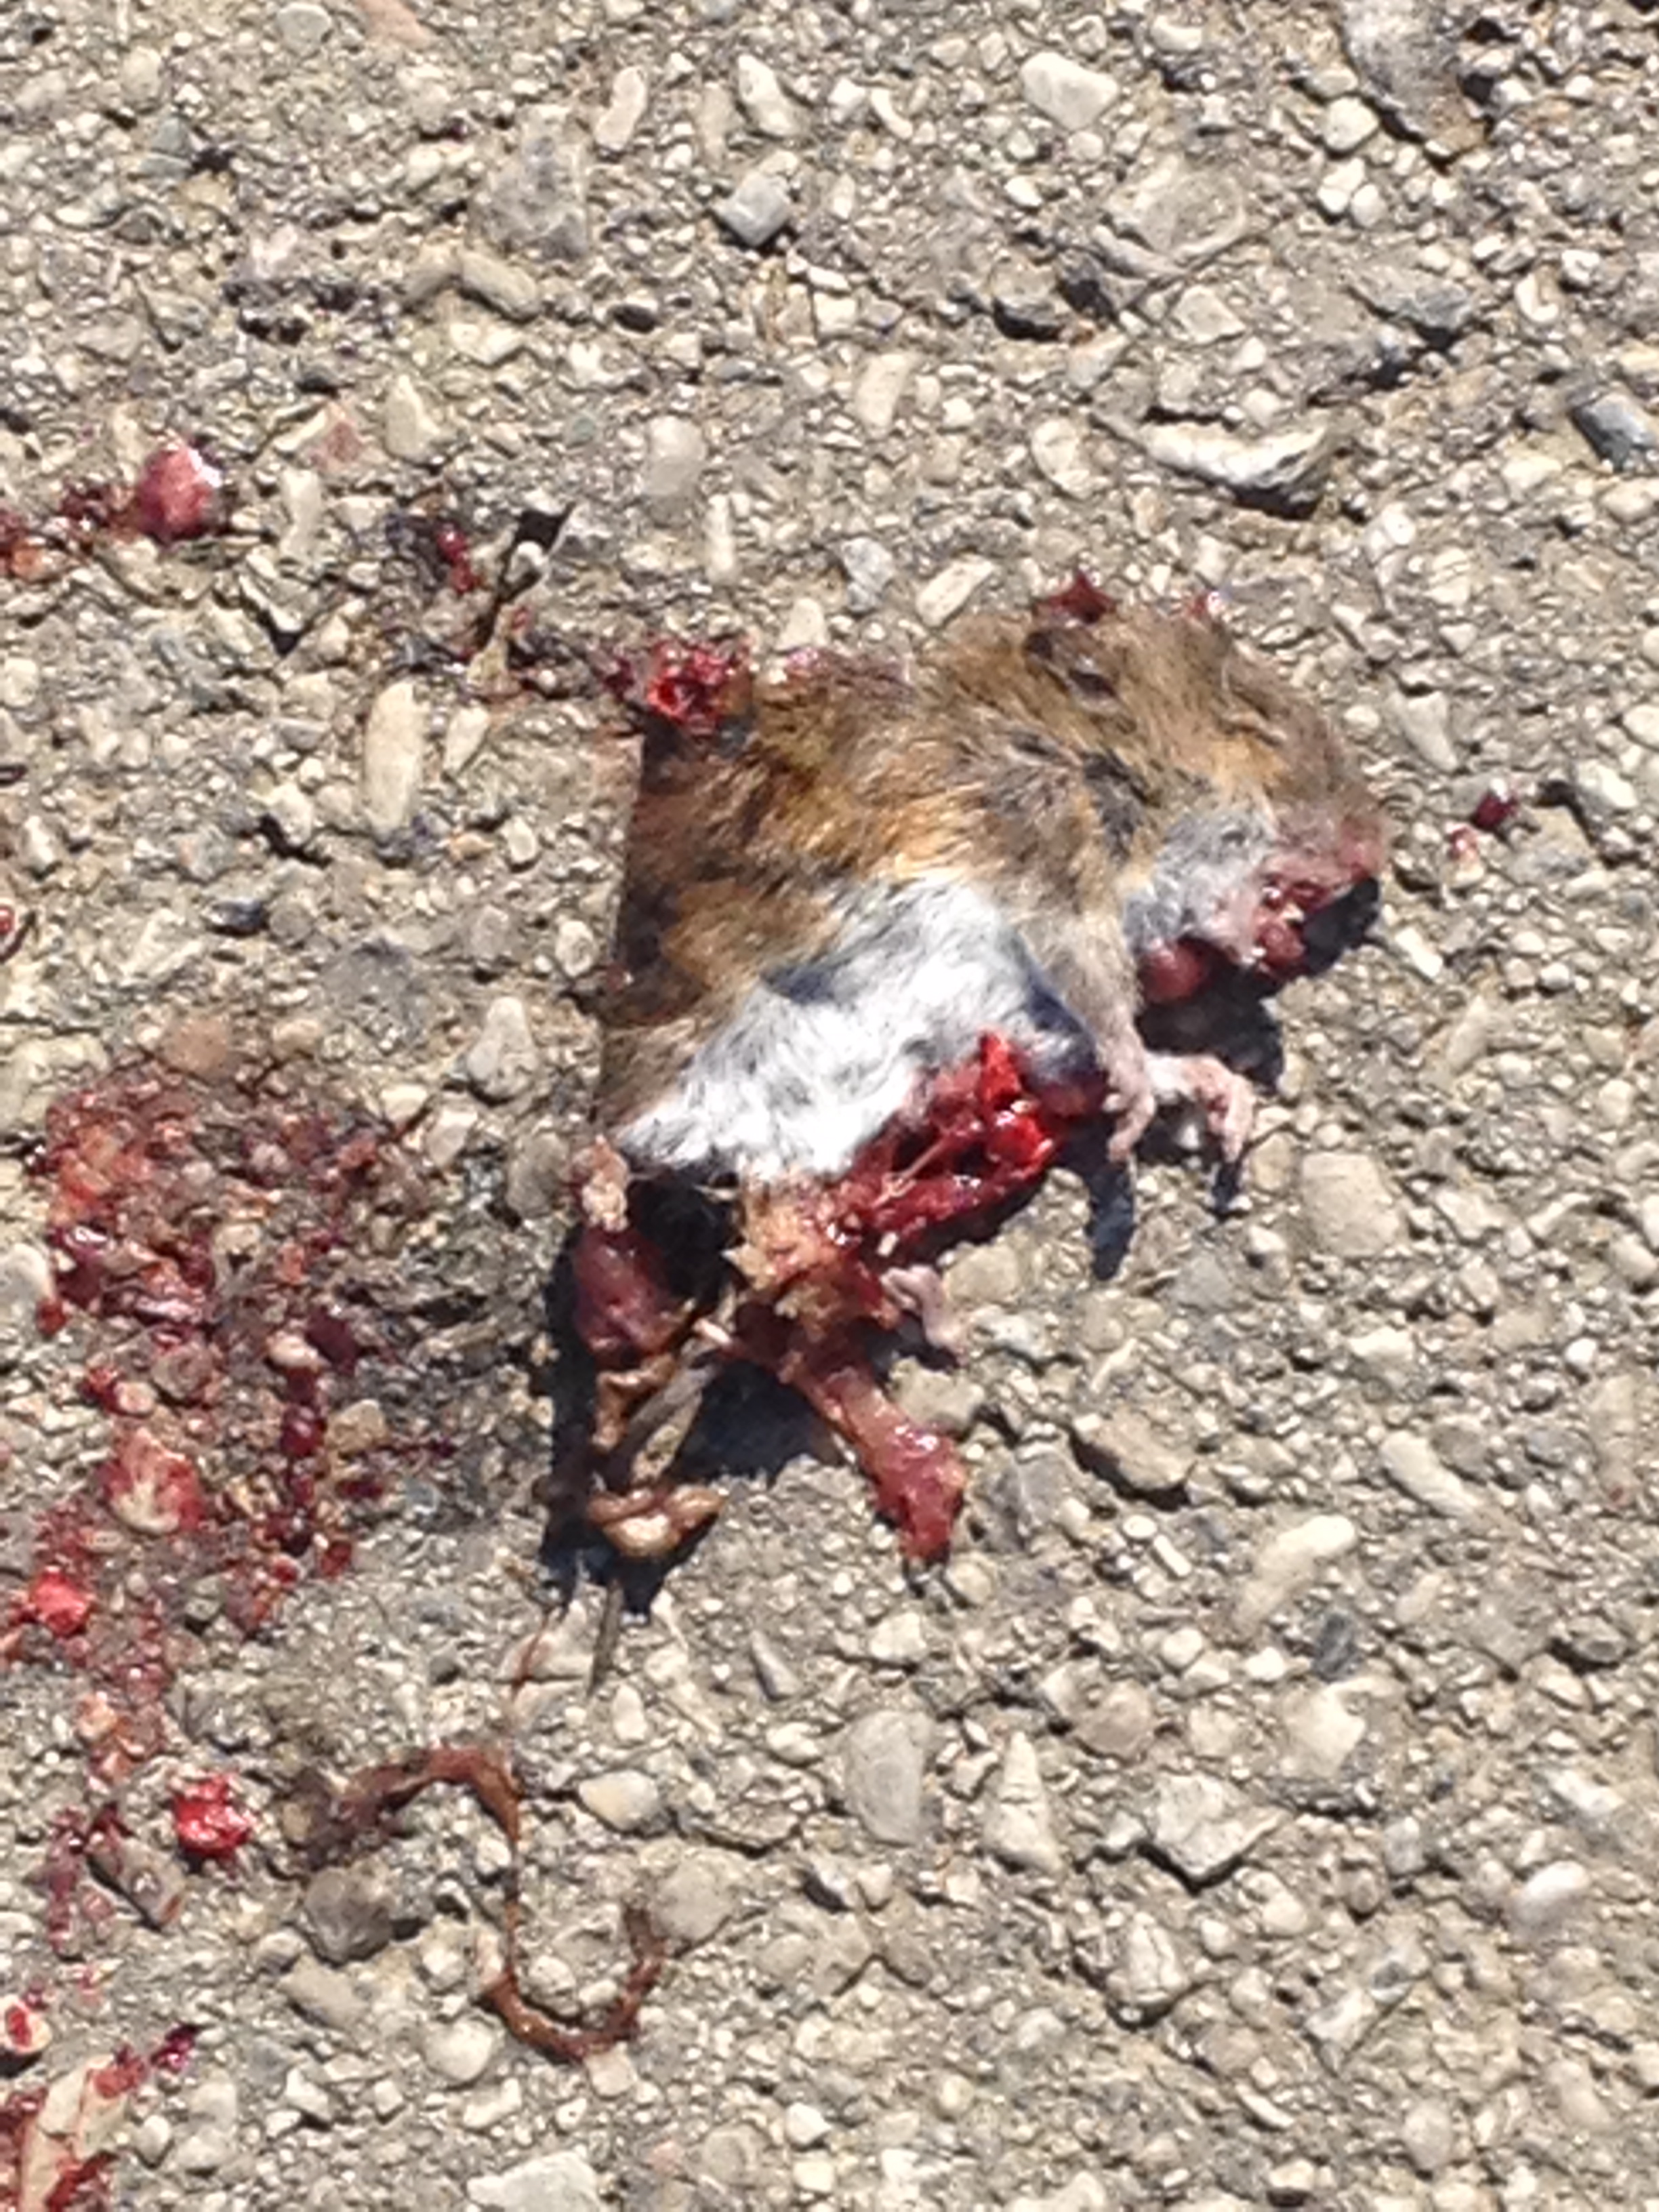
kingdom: Animalia
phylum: Chordata
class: Mammalia
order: Rodentia
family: Muridae
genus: Apodemus
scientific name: Apodemus
